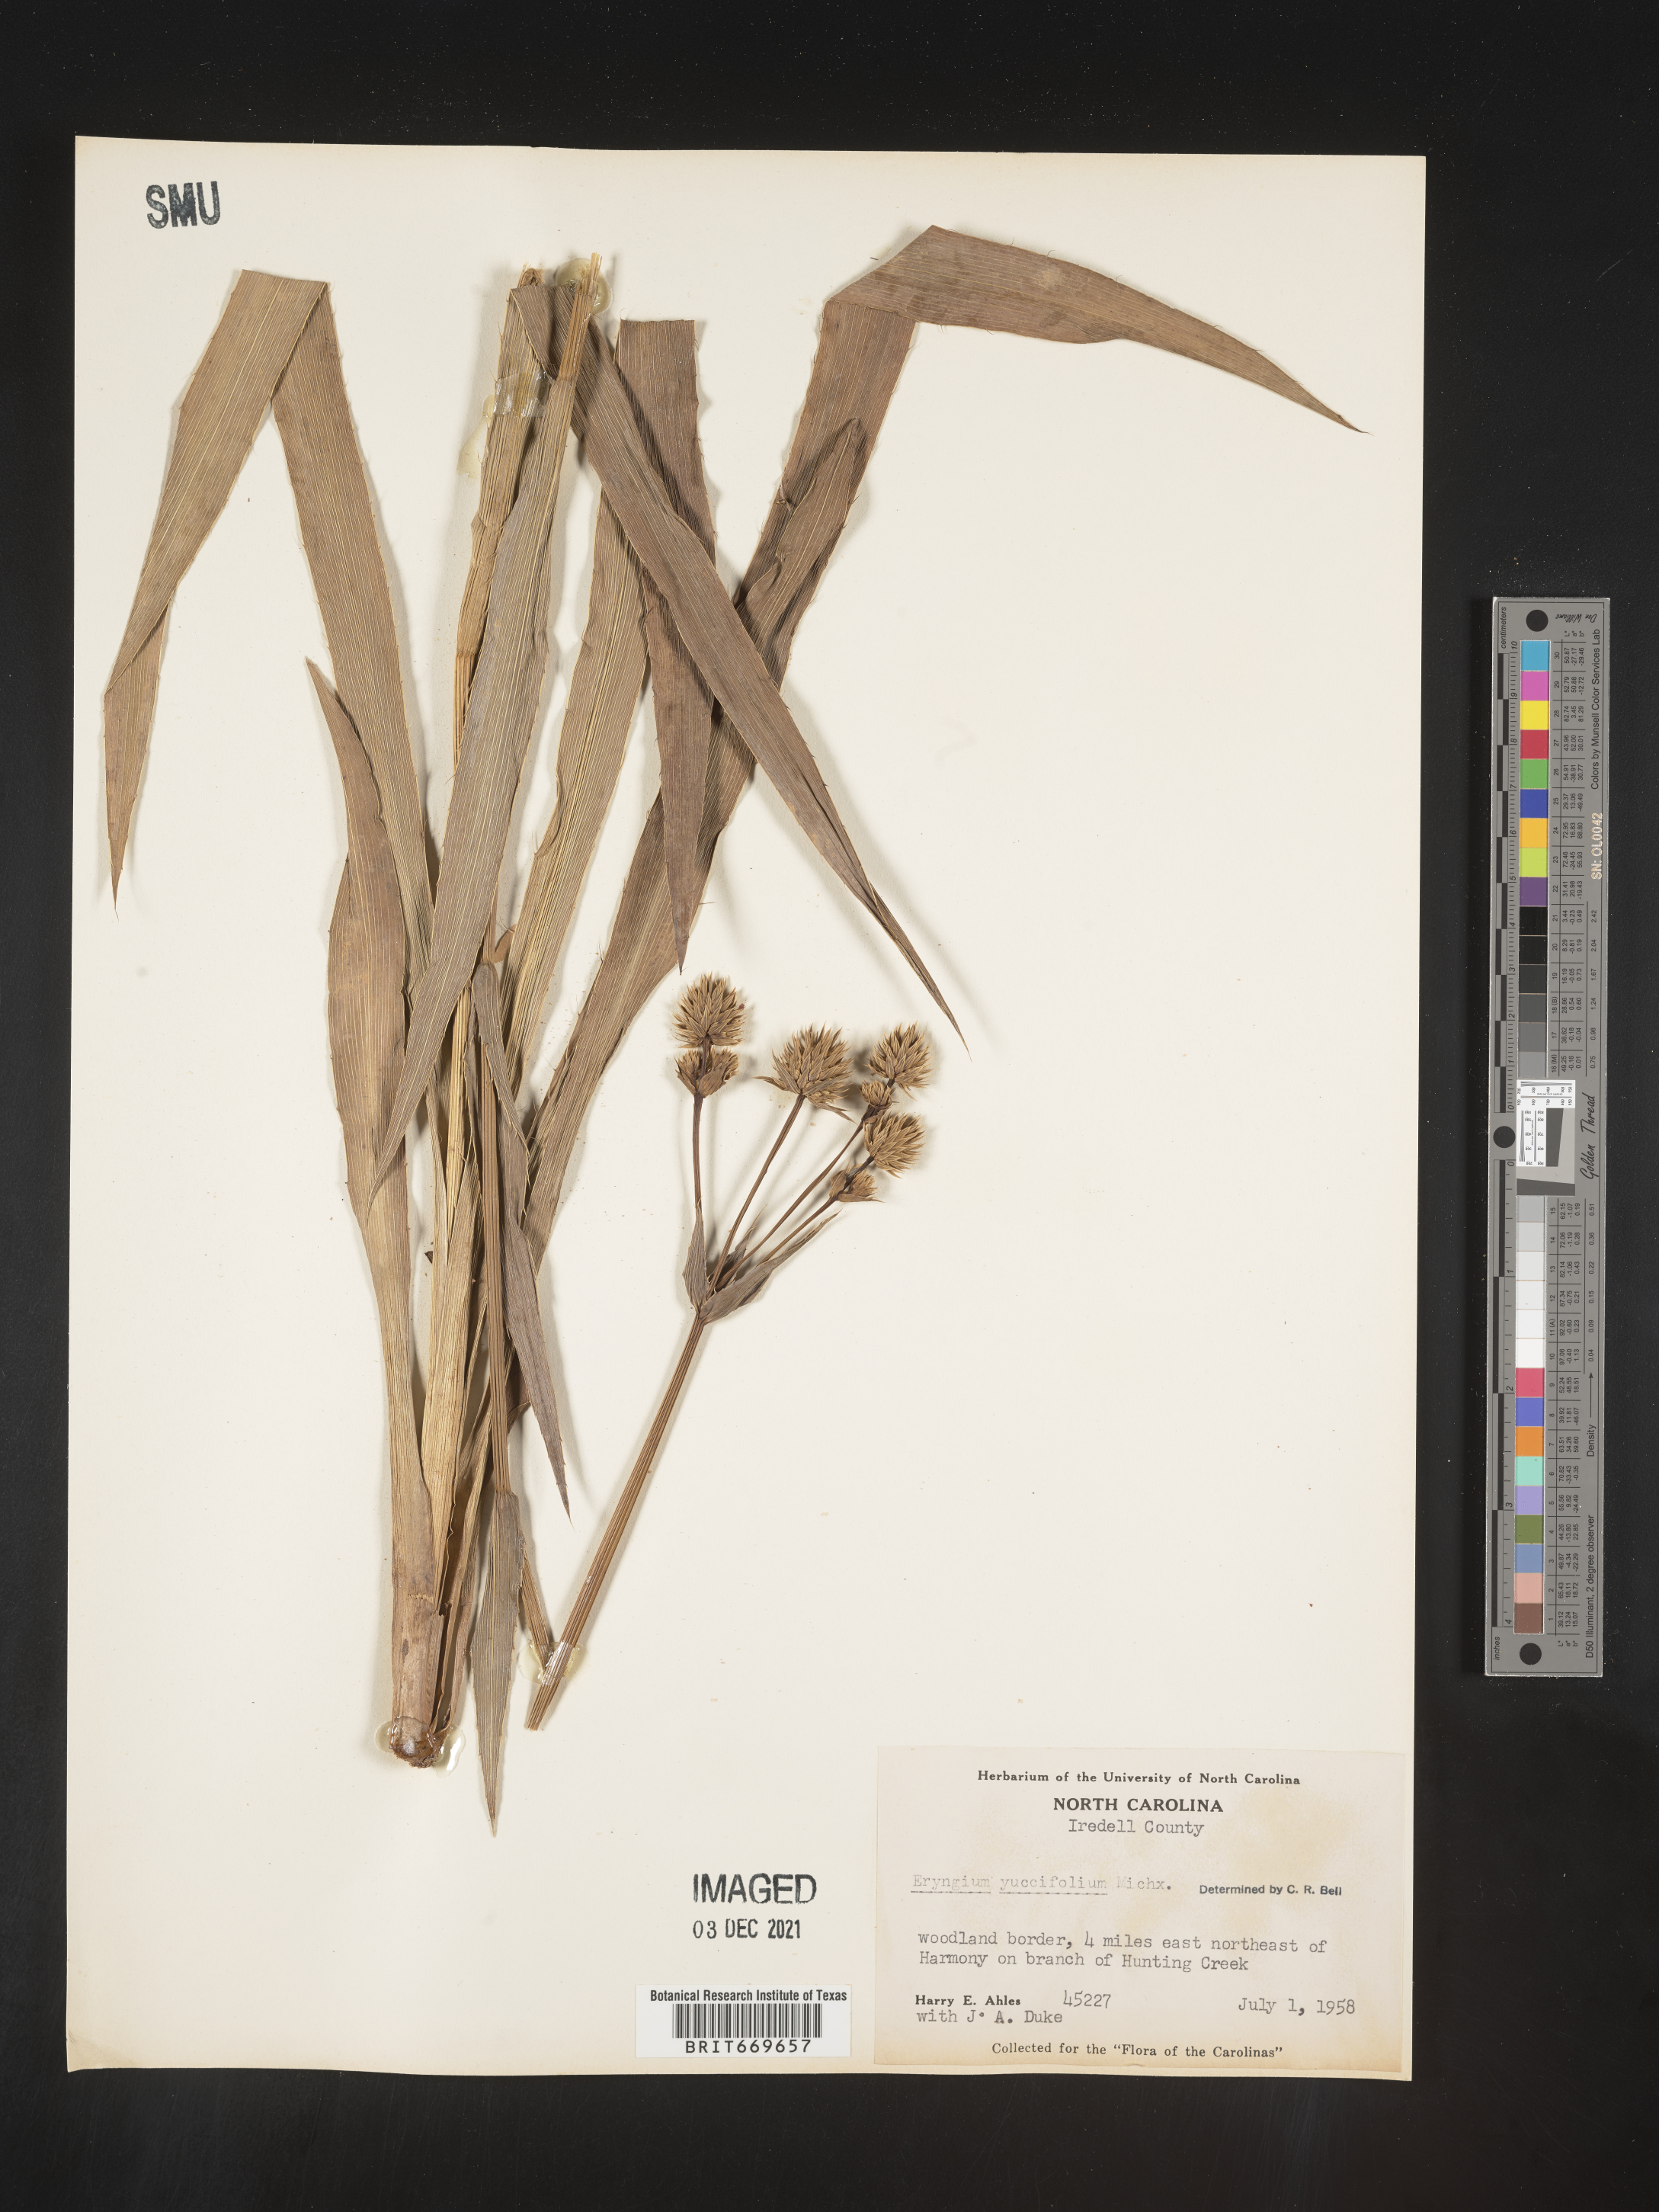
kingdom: Plantae
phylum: Tracheophyta
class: Magnoliopsida
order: Apiales
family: Apiaceae
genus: Eryngium
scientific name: Eryngium yuccifolium
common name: Button eryngo
